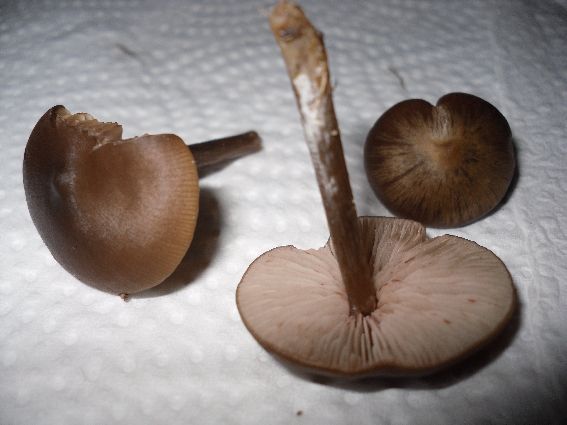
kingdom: Fungi
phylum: Basidiomycota
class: Agaricomycetes
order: Agaricales
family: Entolomataceae
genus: Entoloma
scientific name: Entoloma sericeum
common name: silkeglinsende rødblad
